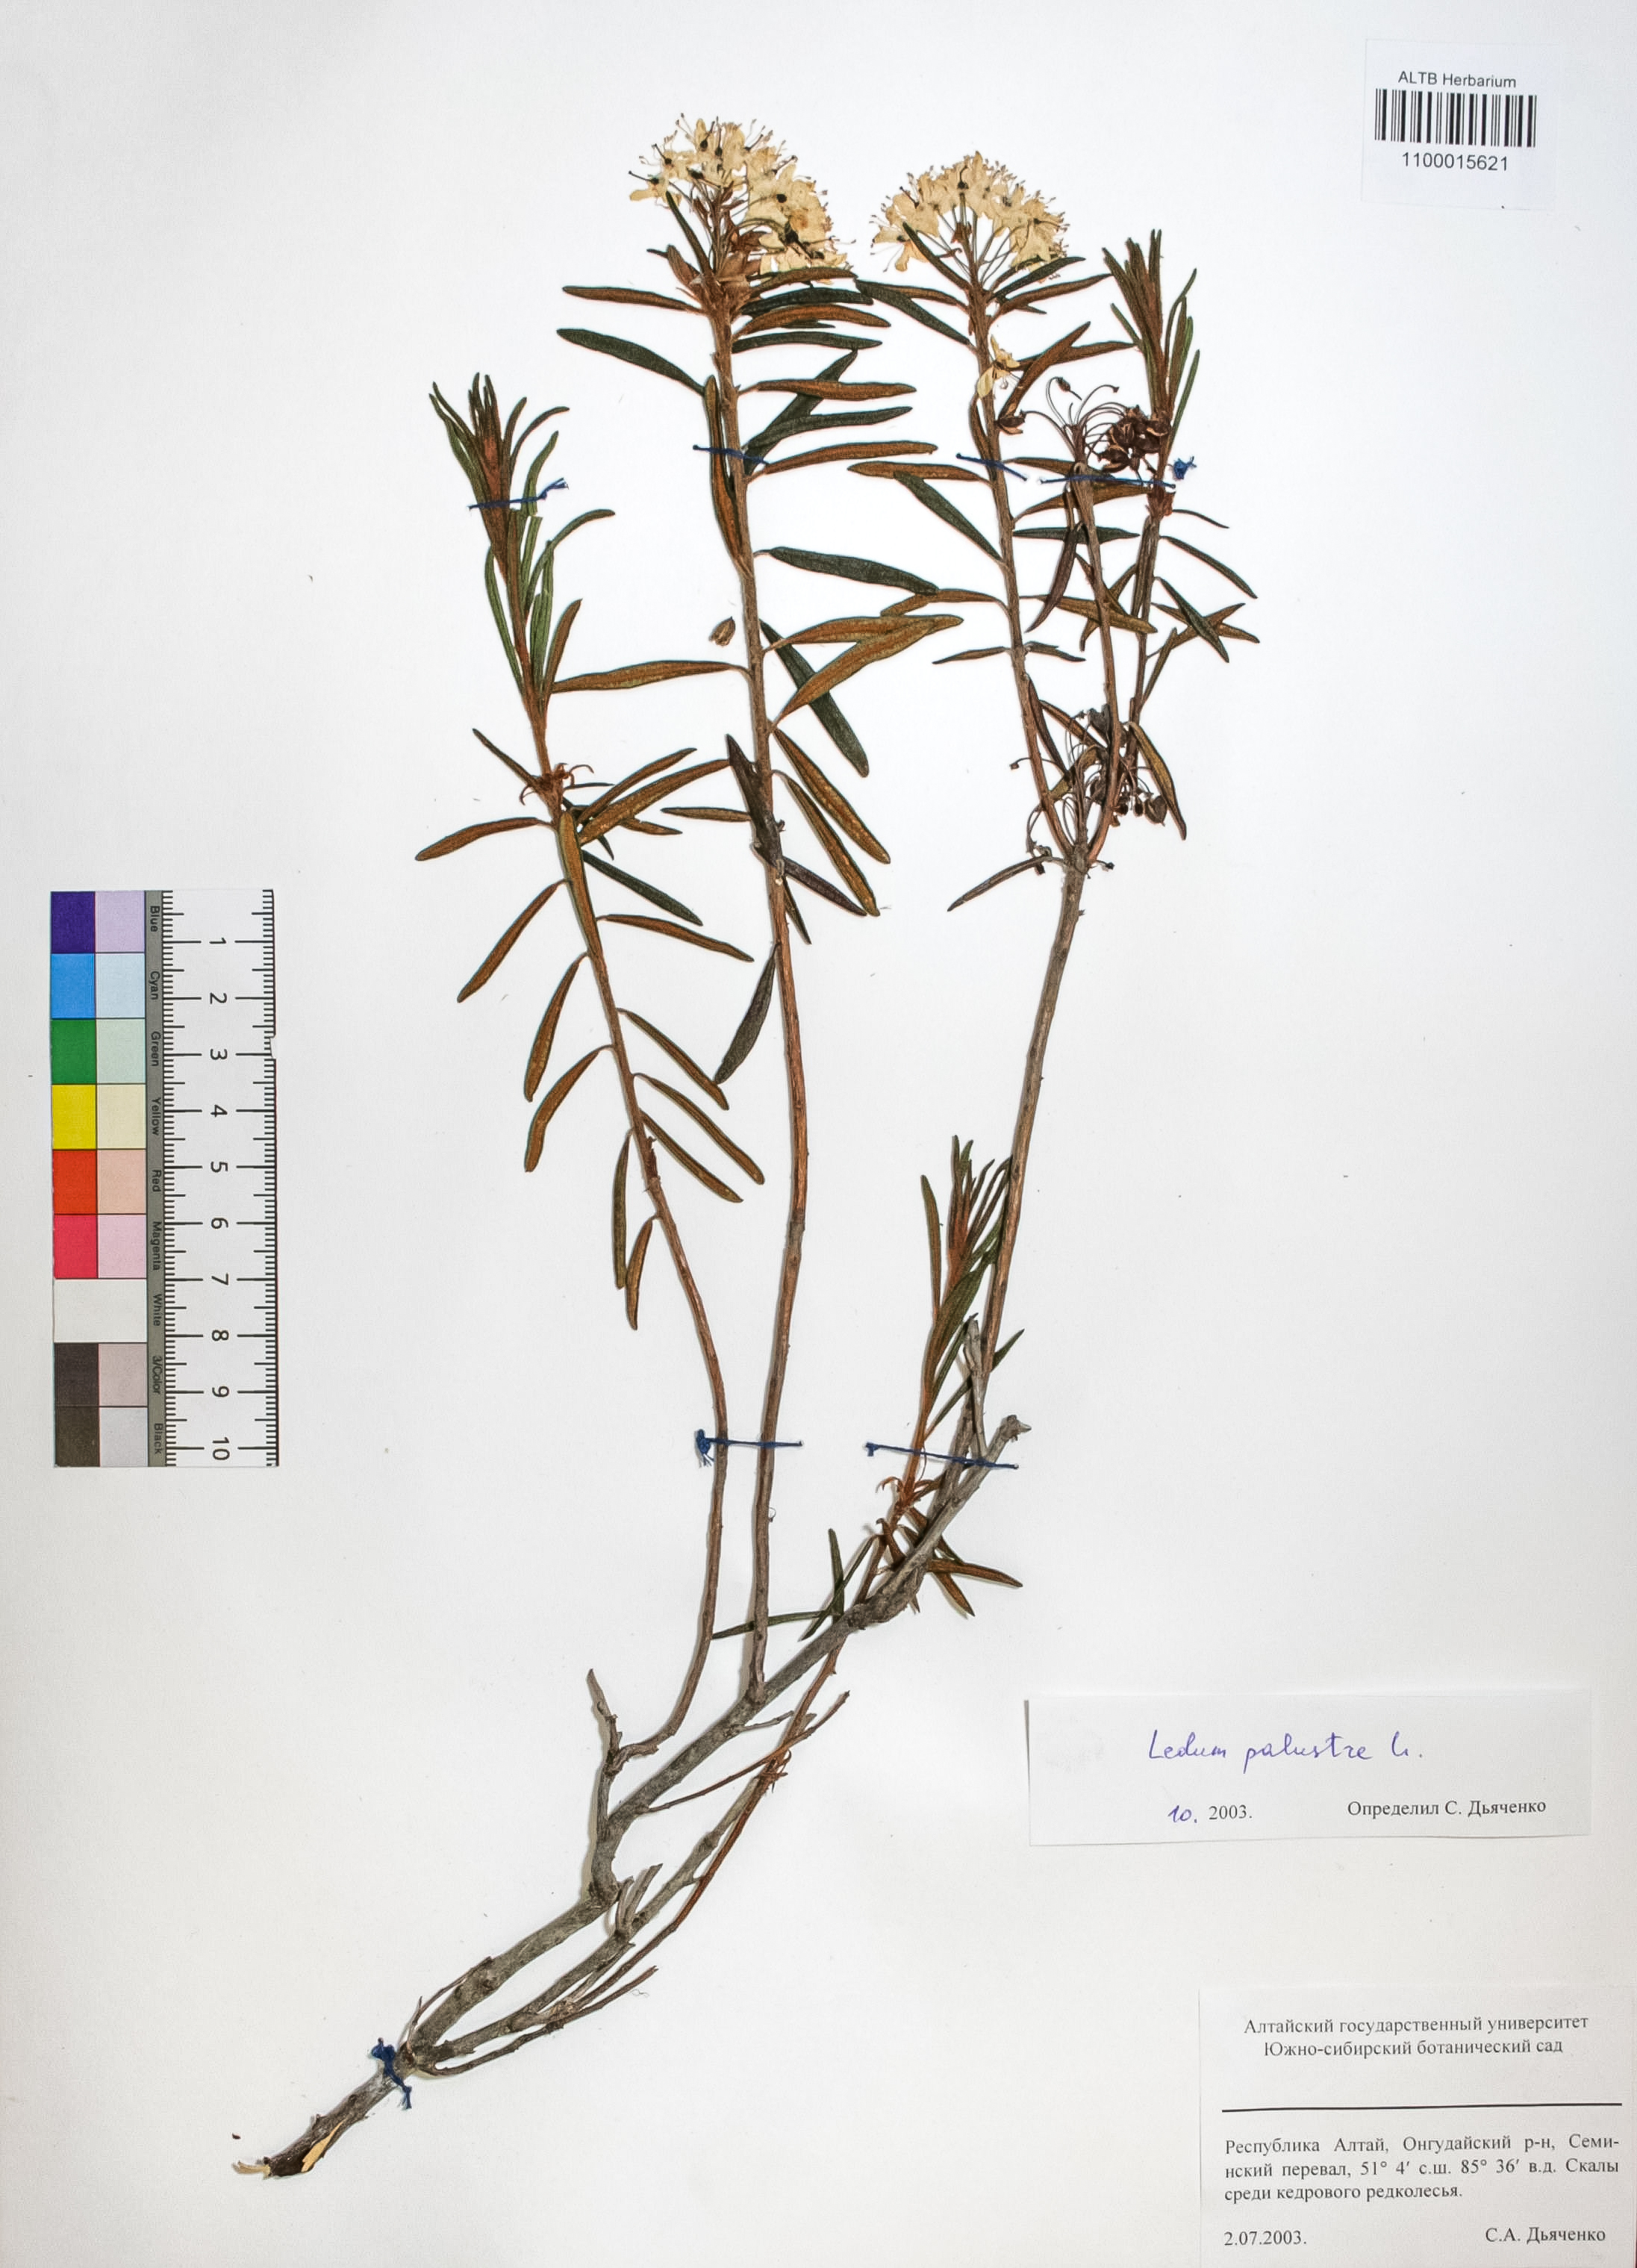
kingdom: Plantae
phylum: Tracheophyta
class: Magnoliopsida
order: Ericales
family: Ericaceae
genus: Rhododendron
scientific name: Rhododendron tomentosum
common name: Marsh labrador tea
